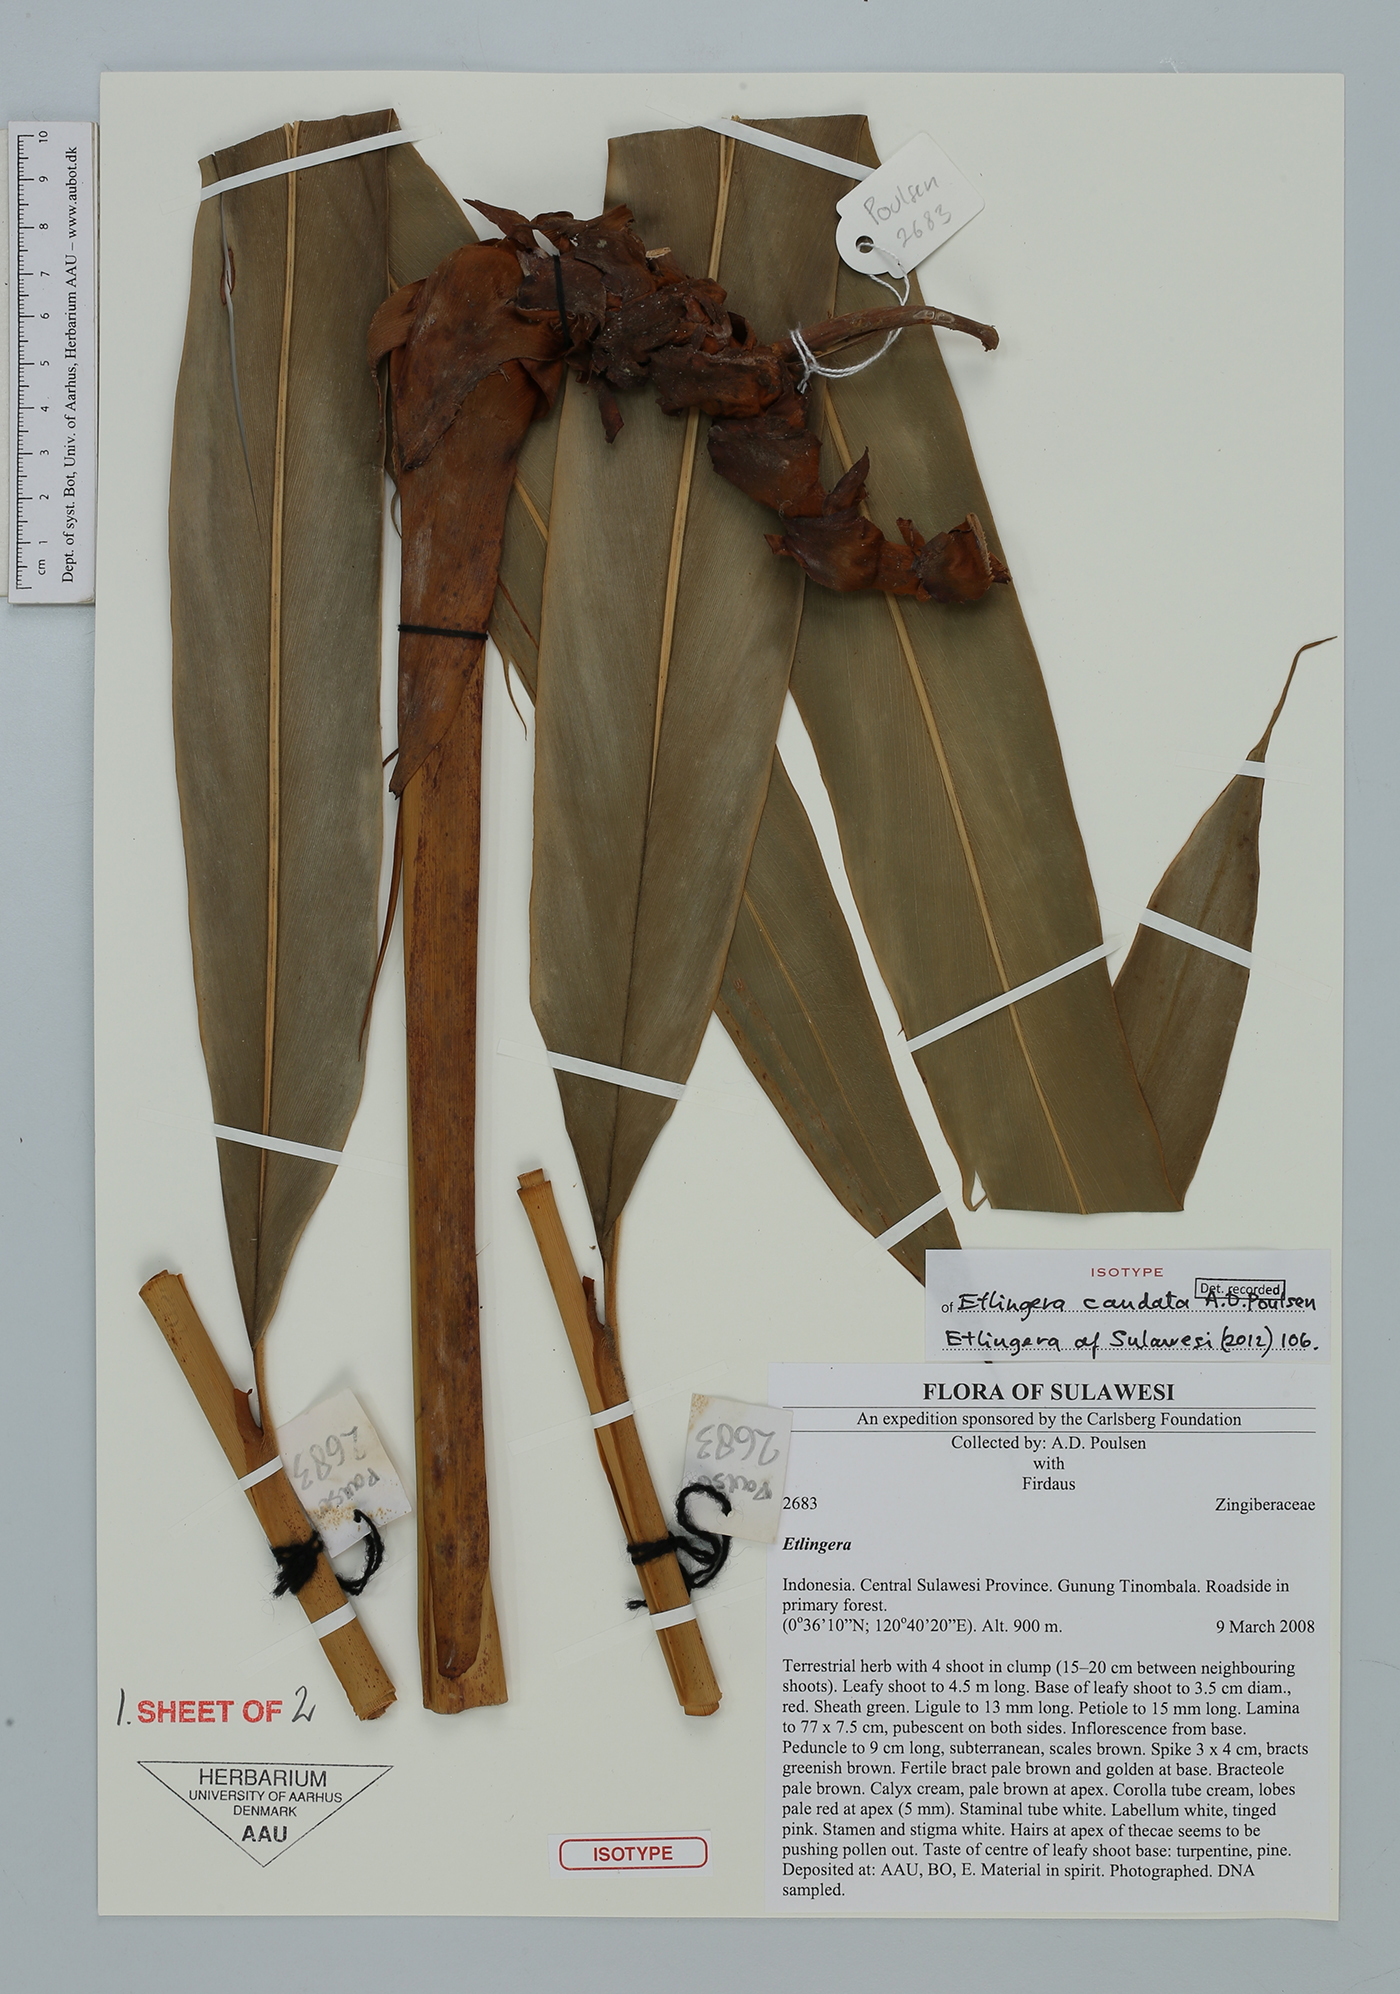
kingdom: Plantae
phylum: Tracheophyta
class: Liliopsida
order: Zingiberales
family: Zingiberaceae
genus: Etlingera
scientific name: Etlingera caudata
